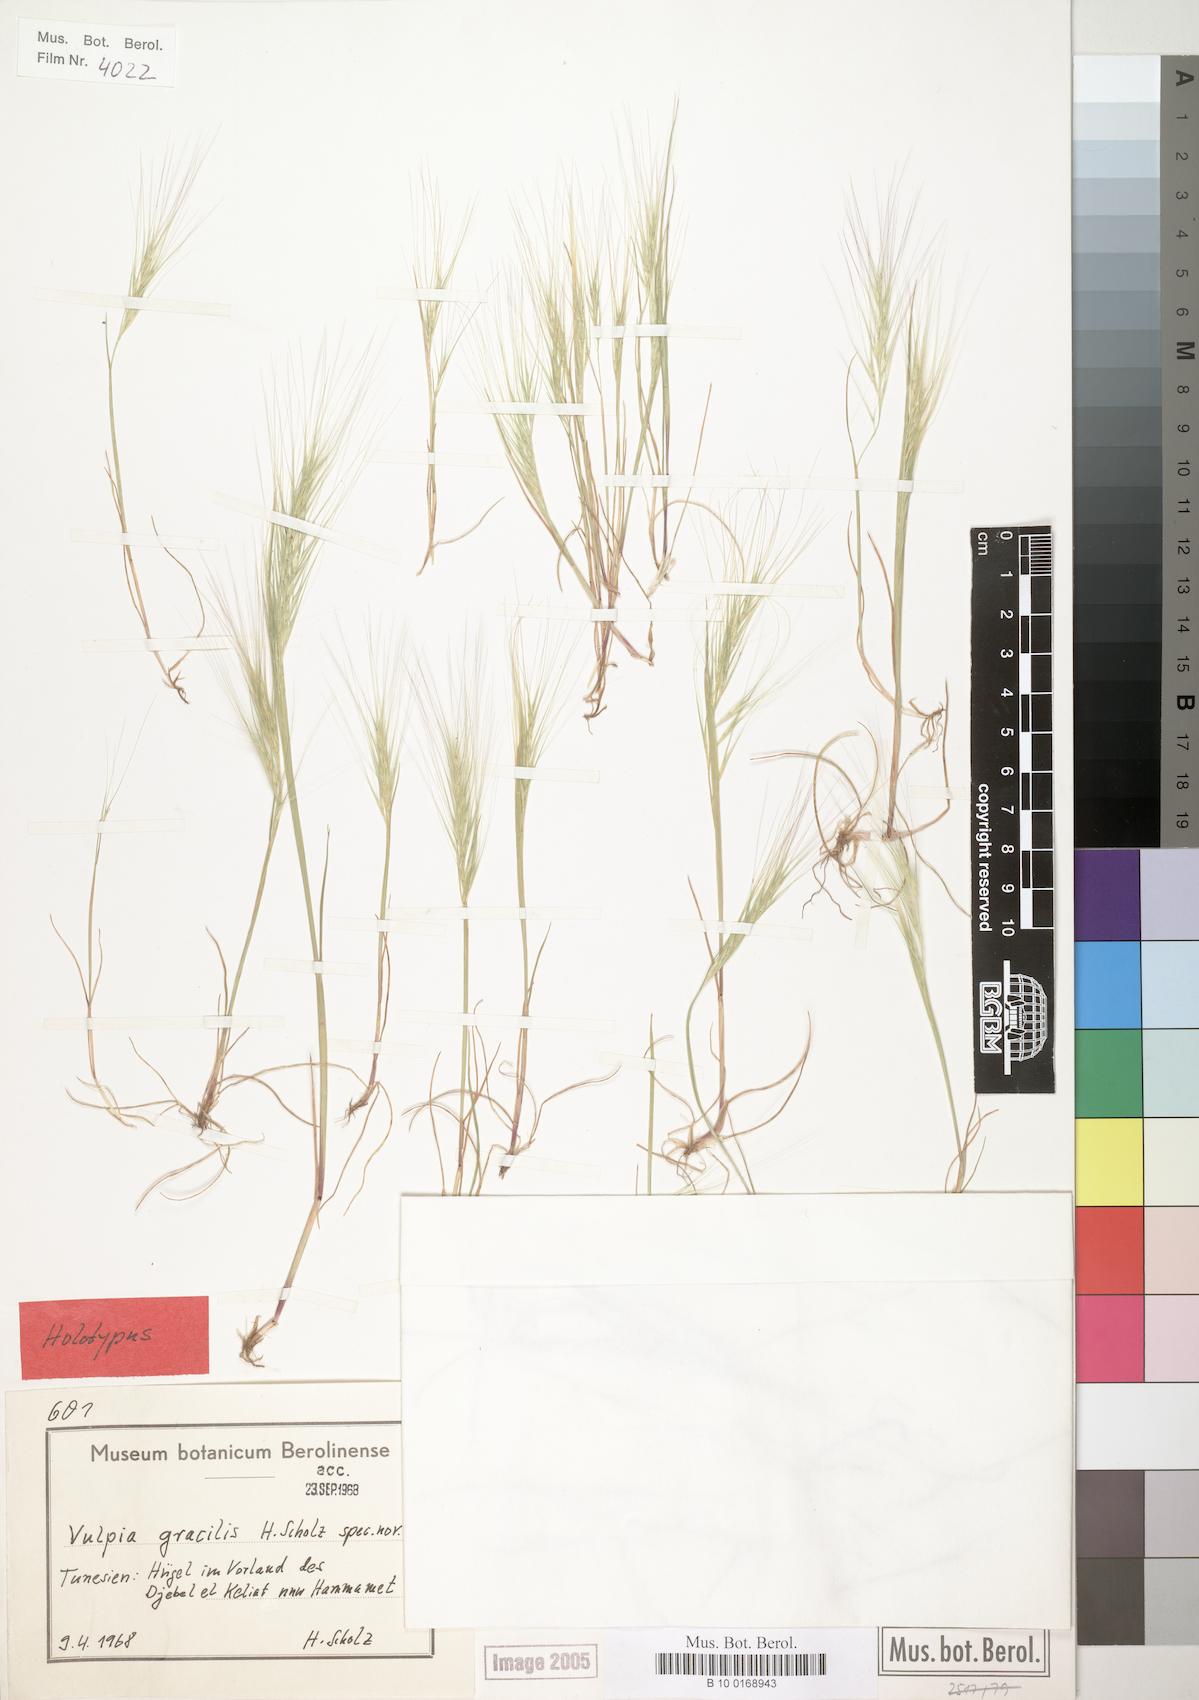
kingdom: Plantae
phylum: Tracheophyta
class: Liliopsida
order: Poales
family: Poaceae
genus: Festuca
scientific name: Festuca scholziana
